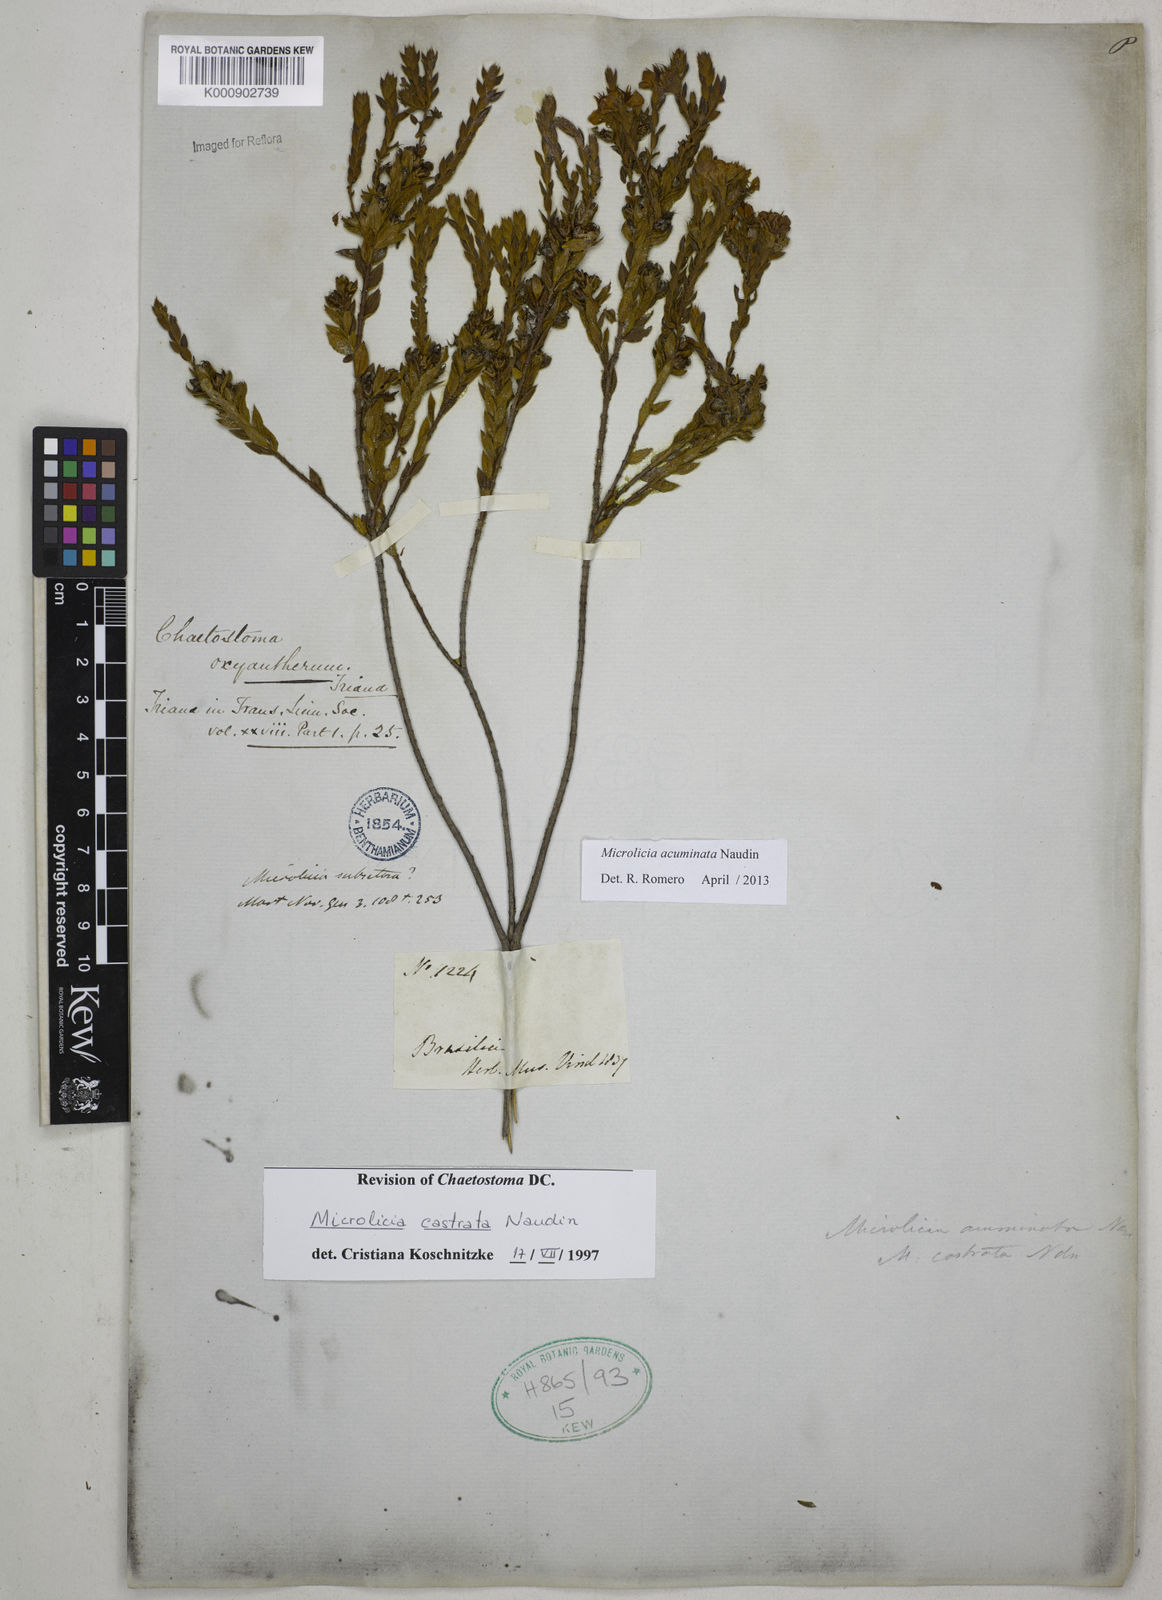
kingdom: Plantae
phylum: Tracheophyta
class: Magnoliopsida
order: Myrtales
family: Melastomataceae
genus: Microlicia
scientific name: Microlicia
